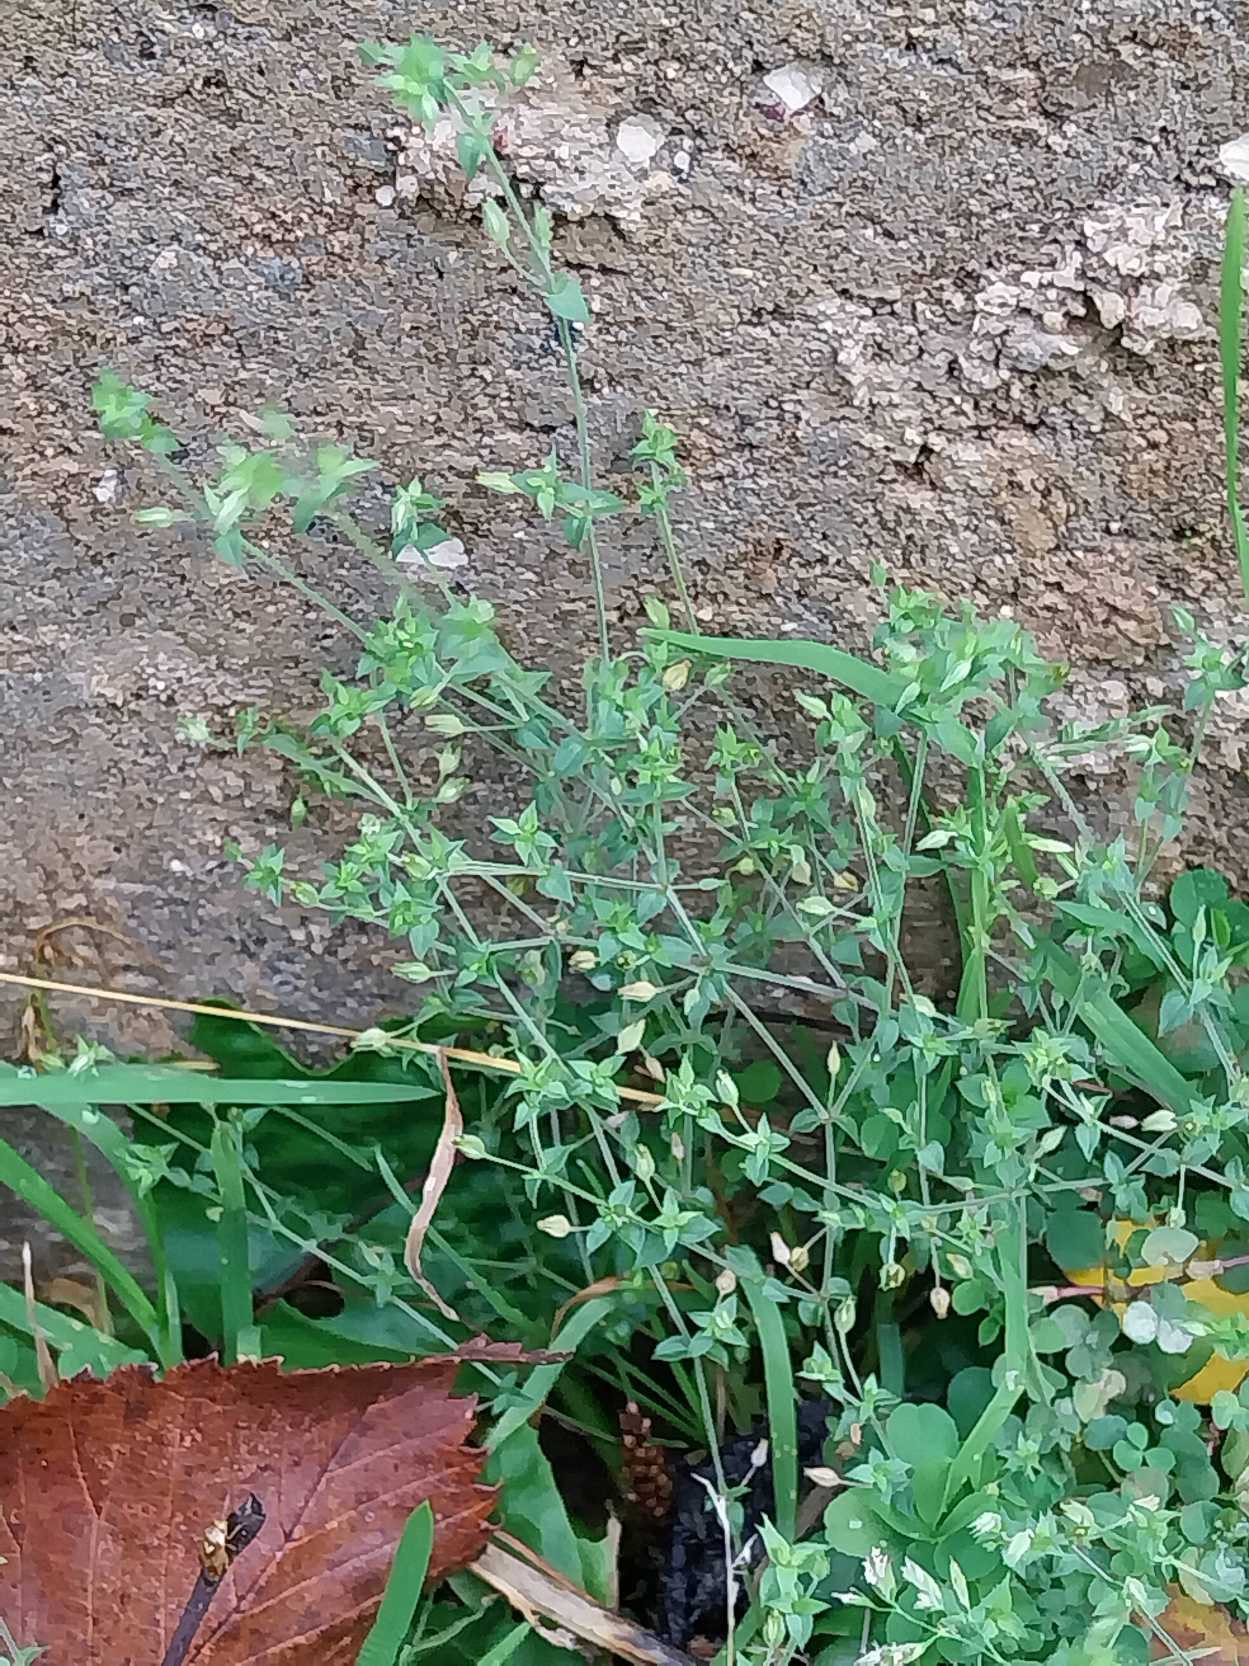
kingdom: Plantae
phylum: Tracheophyta
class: Magnoliopsida
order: Caryophyllales
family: Caryophyllaceae
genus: Arenaria
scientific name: Arenaria serpyllifolia
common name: Almindelig markarve
